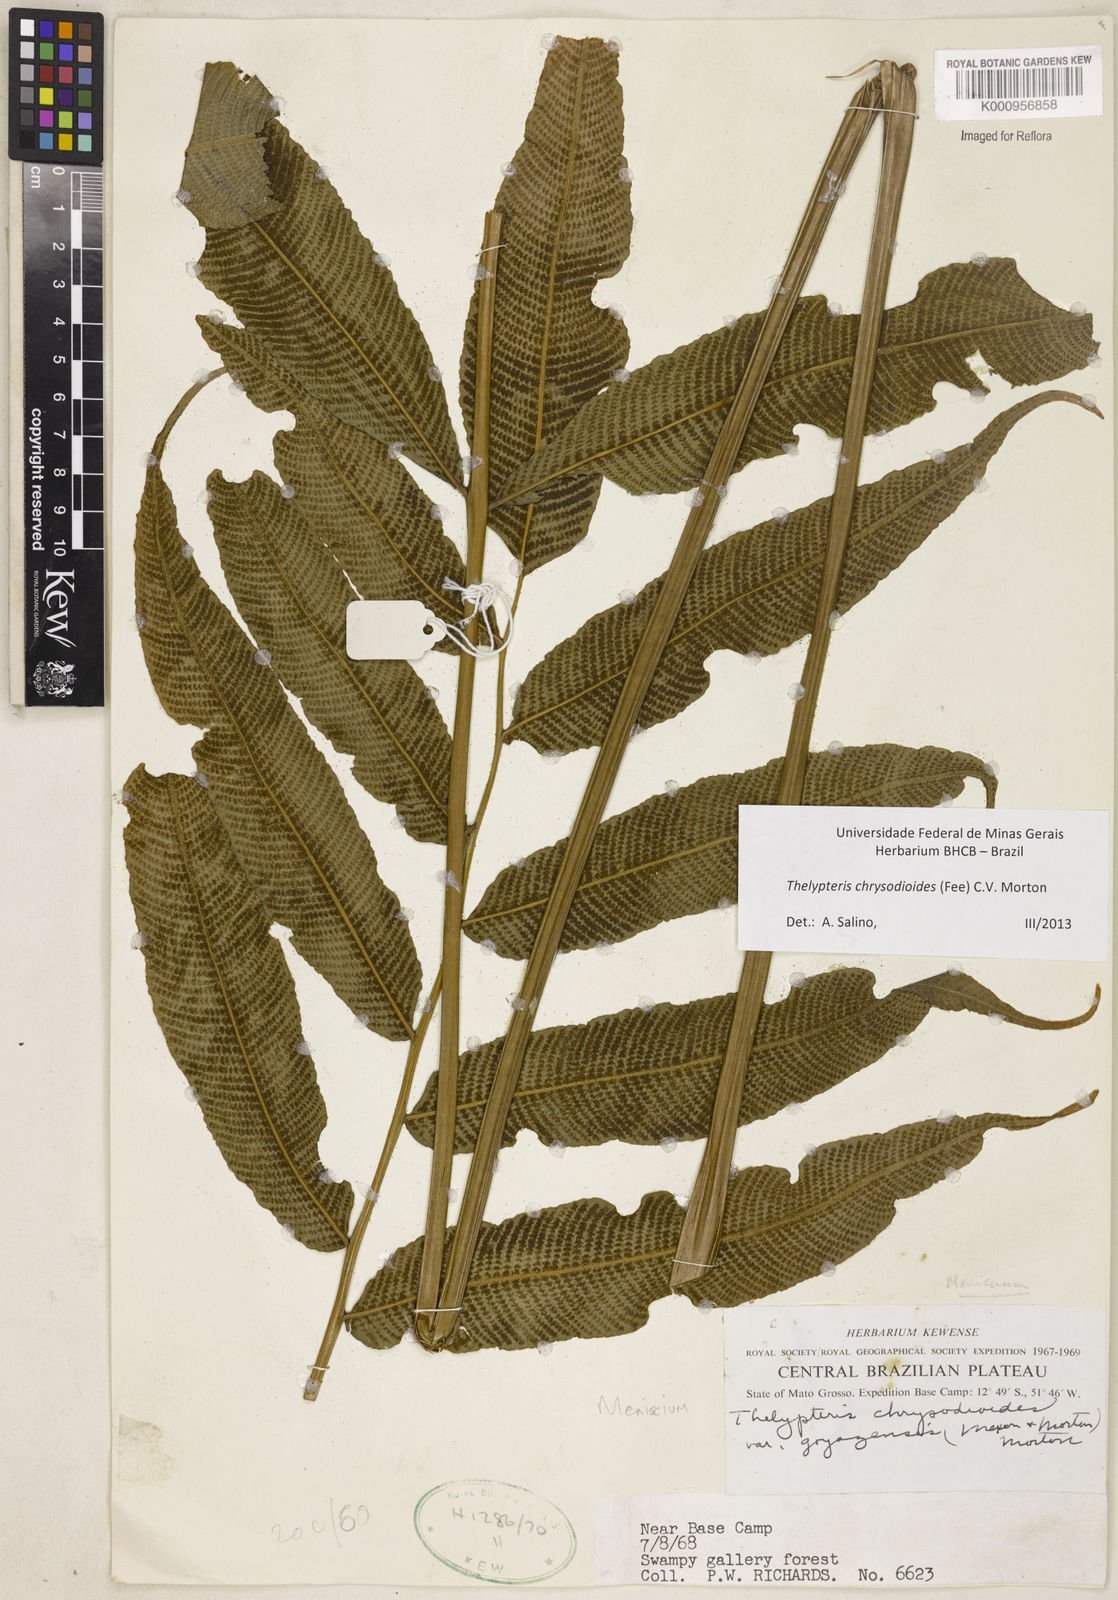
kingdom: Plantae
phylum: Tracheophyta
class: Polypodiopsida
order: Polypodiales
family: Thelypteridaceae
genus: Meniscium
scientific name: Meniscium
